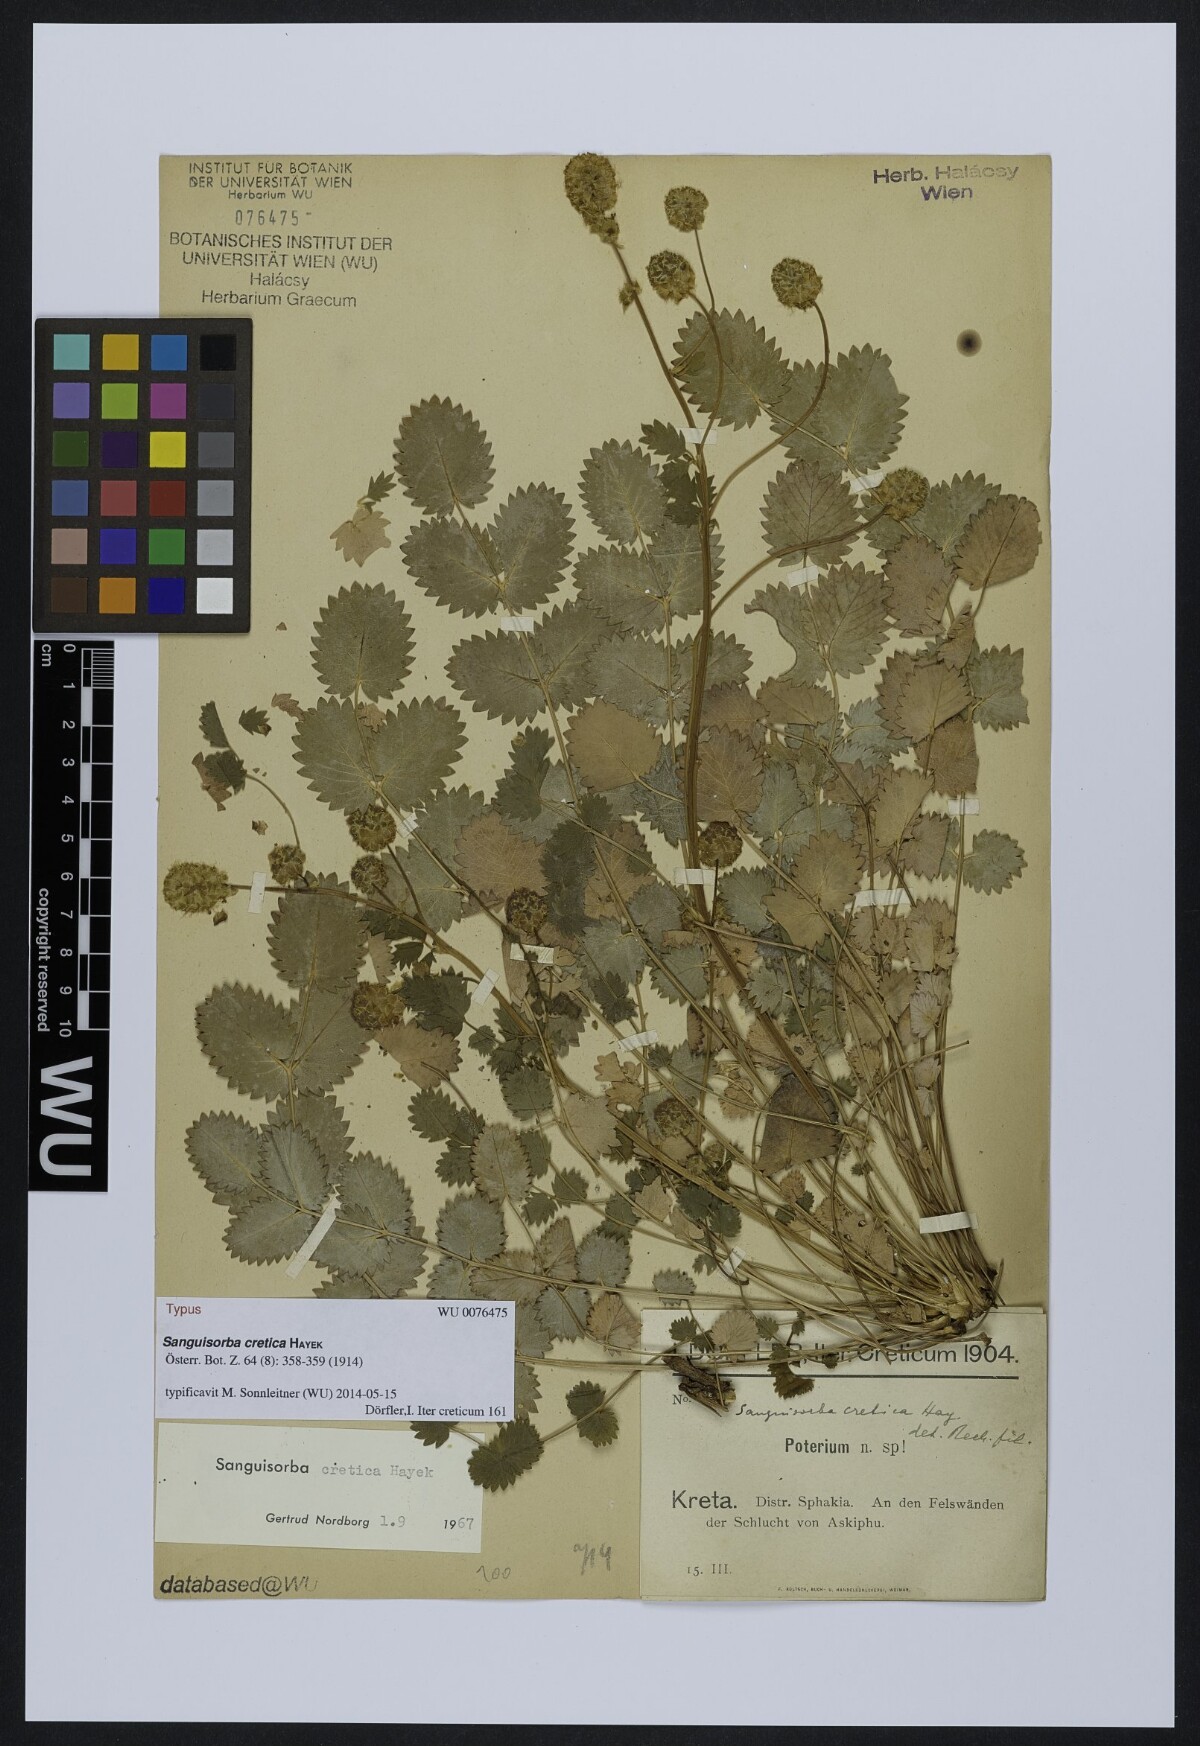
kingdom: Plantae
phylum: Tracheophyta
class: Magnoliopsida
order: Rosales
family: Rosaceae
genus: Poterium
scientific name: Poterium creticum
